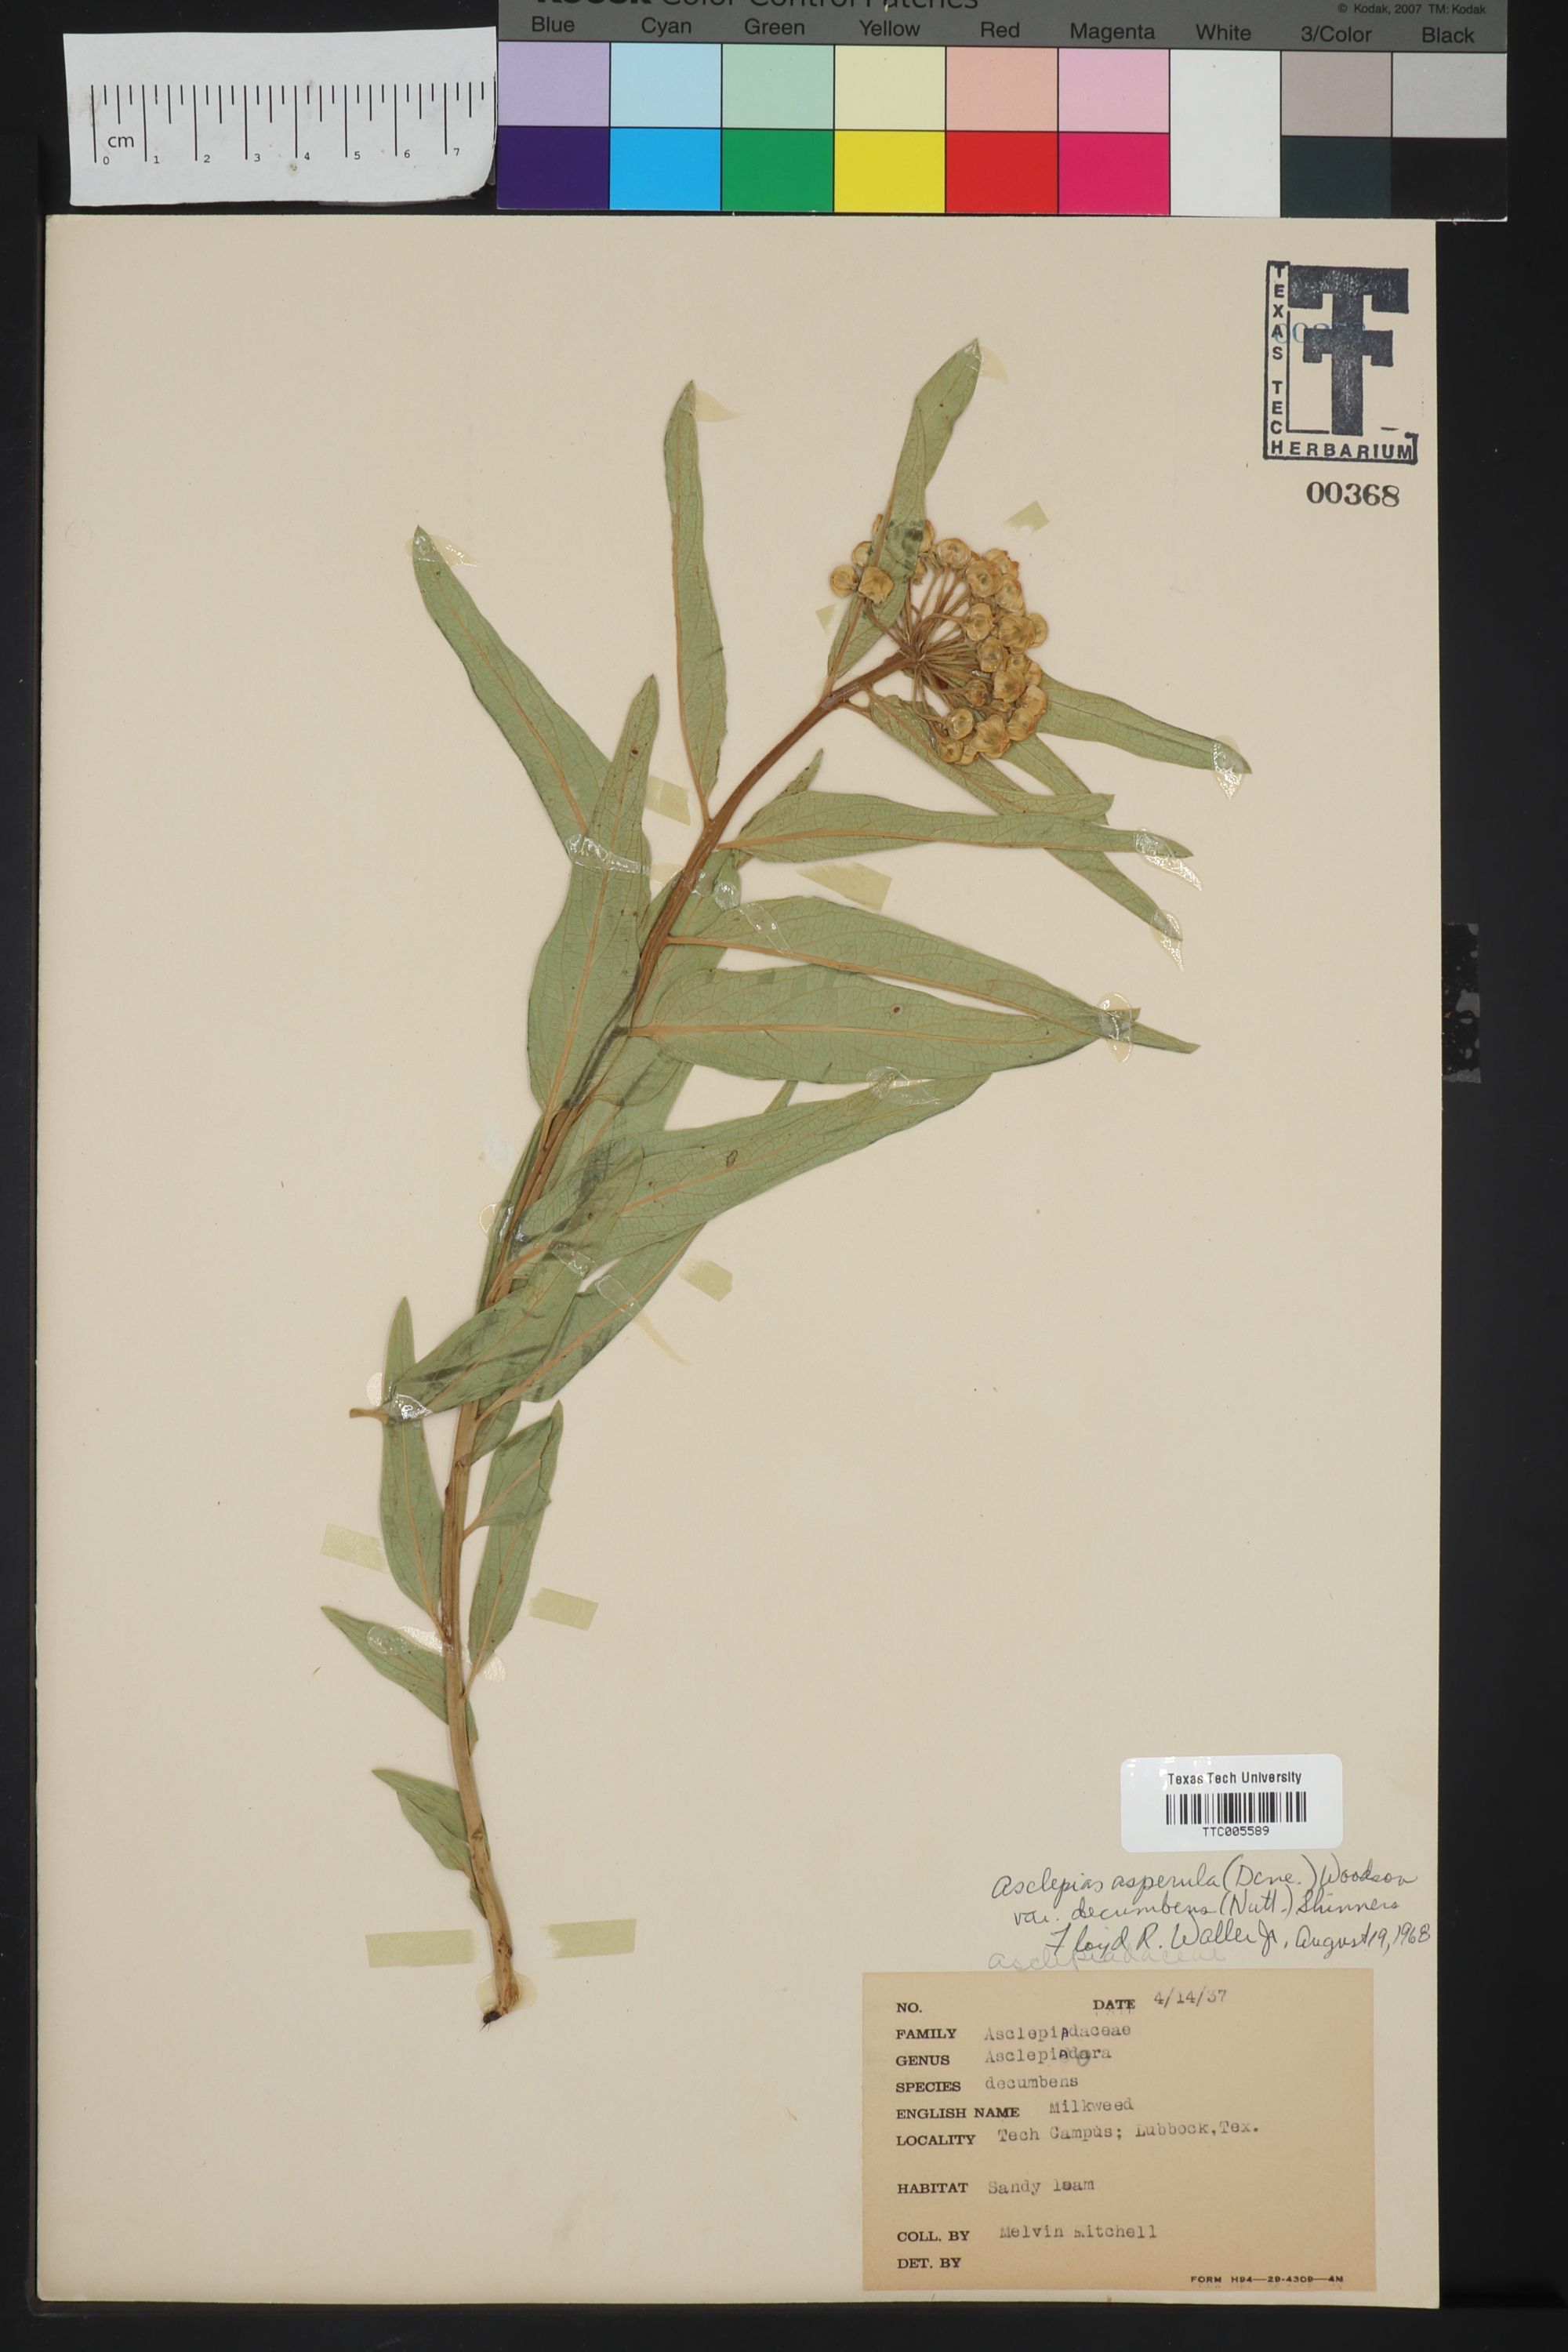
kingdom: Plantae
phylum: Tracheophyta
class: Magnoliopsida
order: Gentianales
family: Apocynaceae
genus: Asclepias
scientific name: Asclepias asperula
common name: Antelope horns
